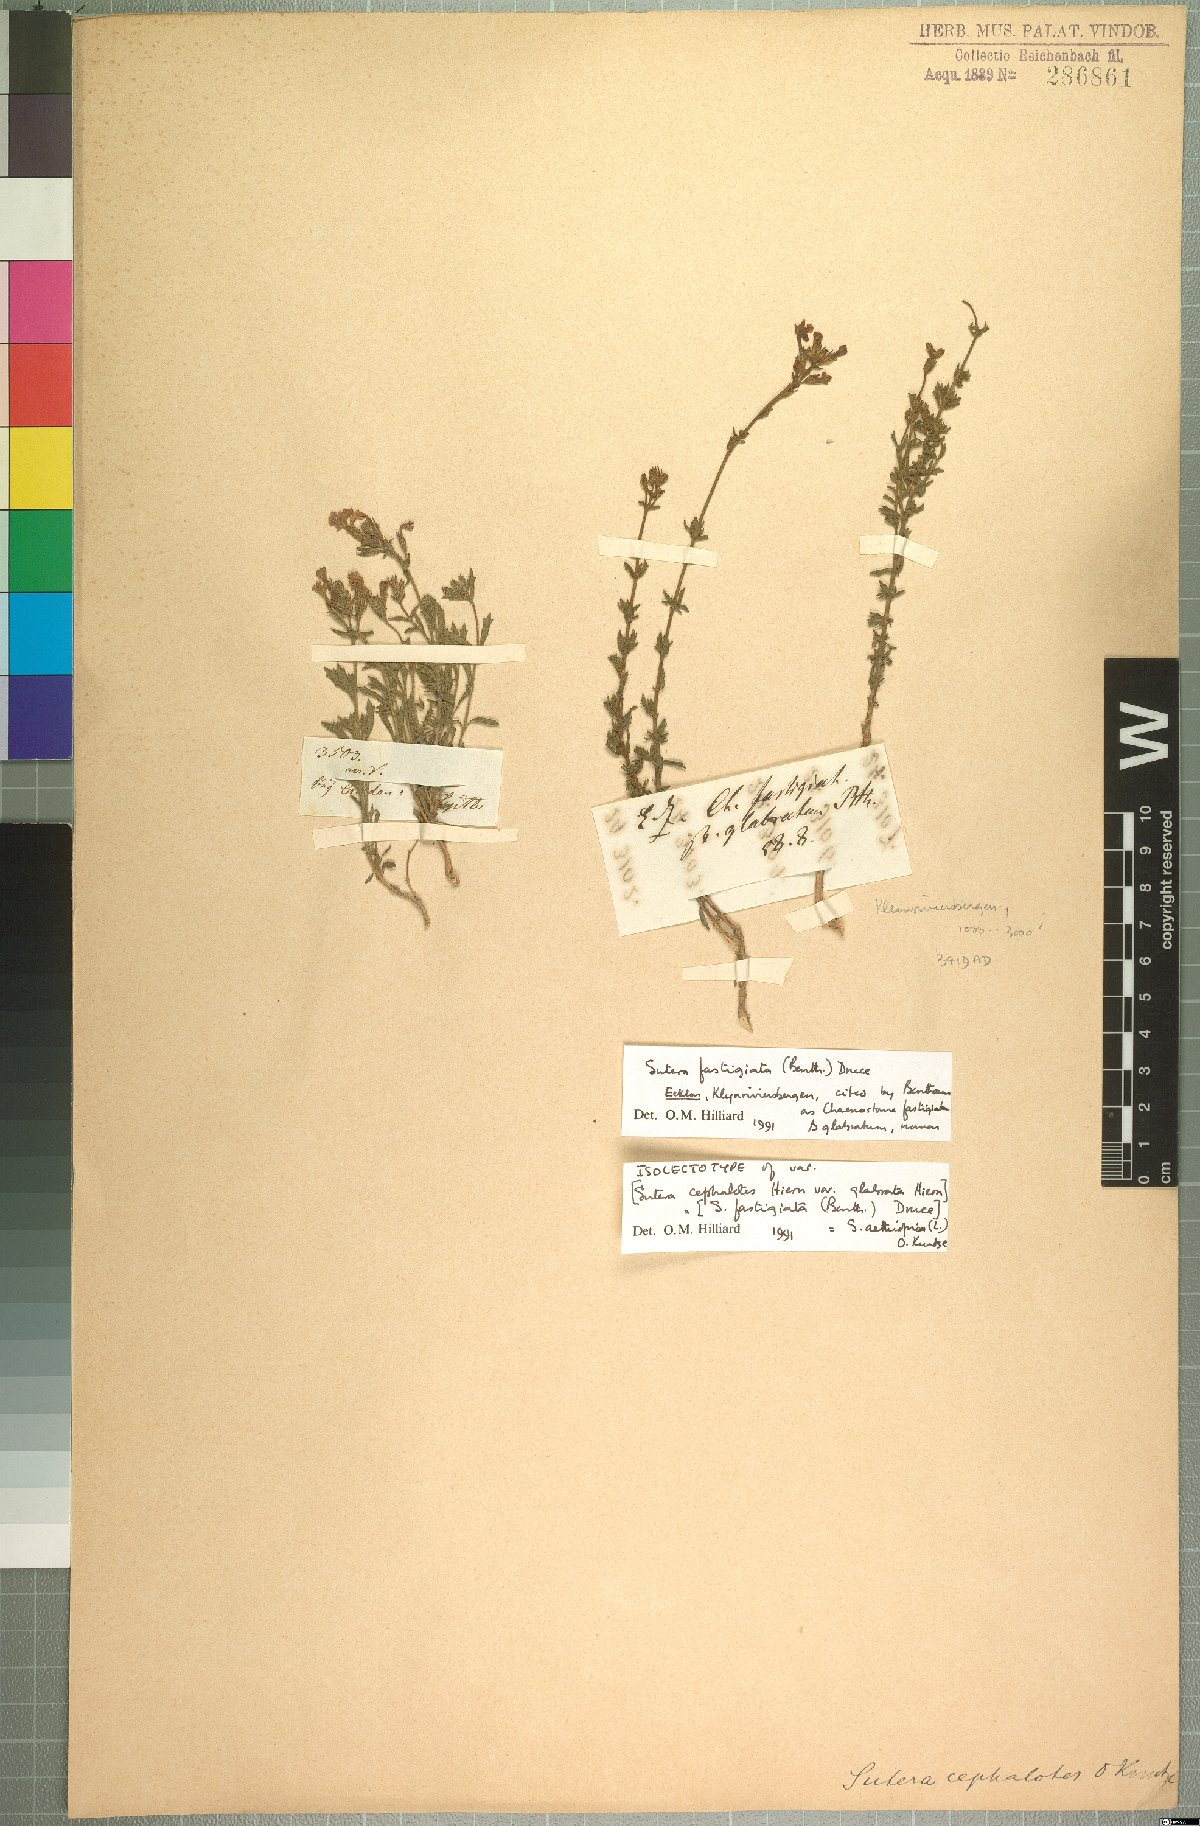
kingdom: Plantae
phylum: Tracheophyta
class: Magnoliopsida
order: Lamiales
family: Scrophulariaceae
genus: Chaenostoma
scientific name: Chaenostoma aethiopicum
